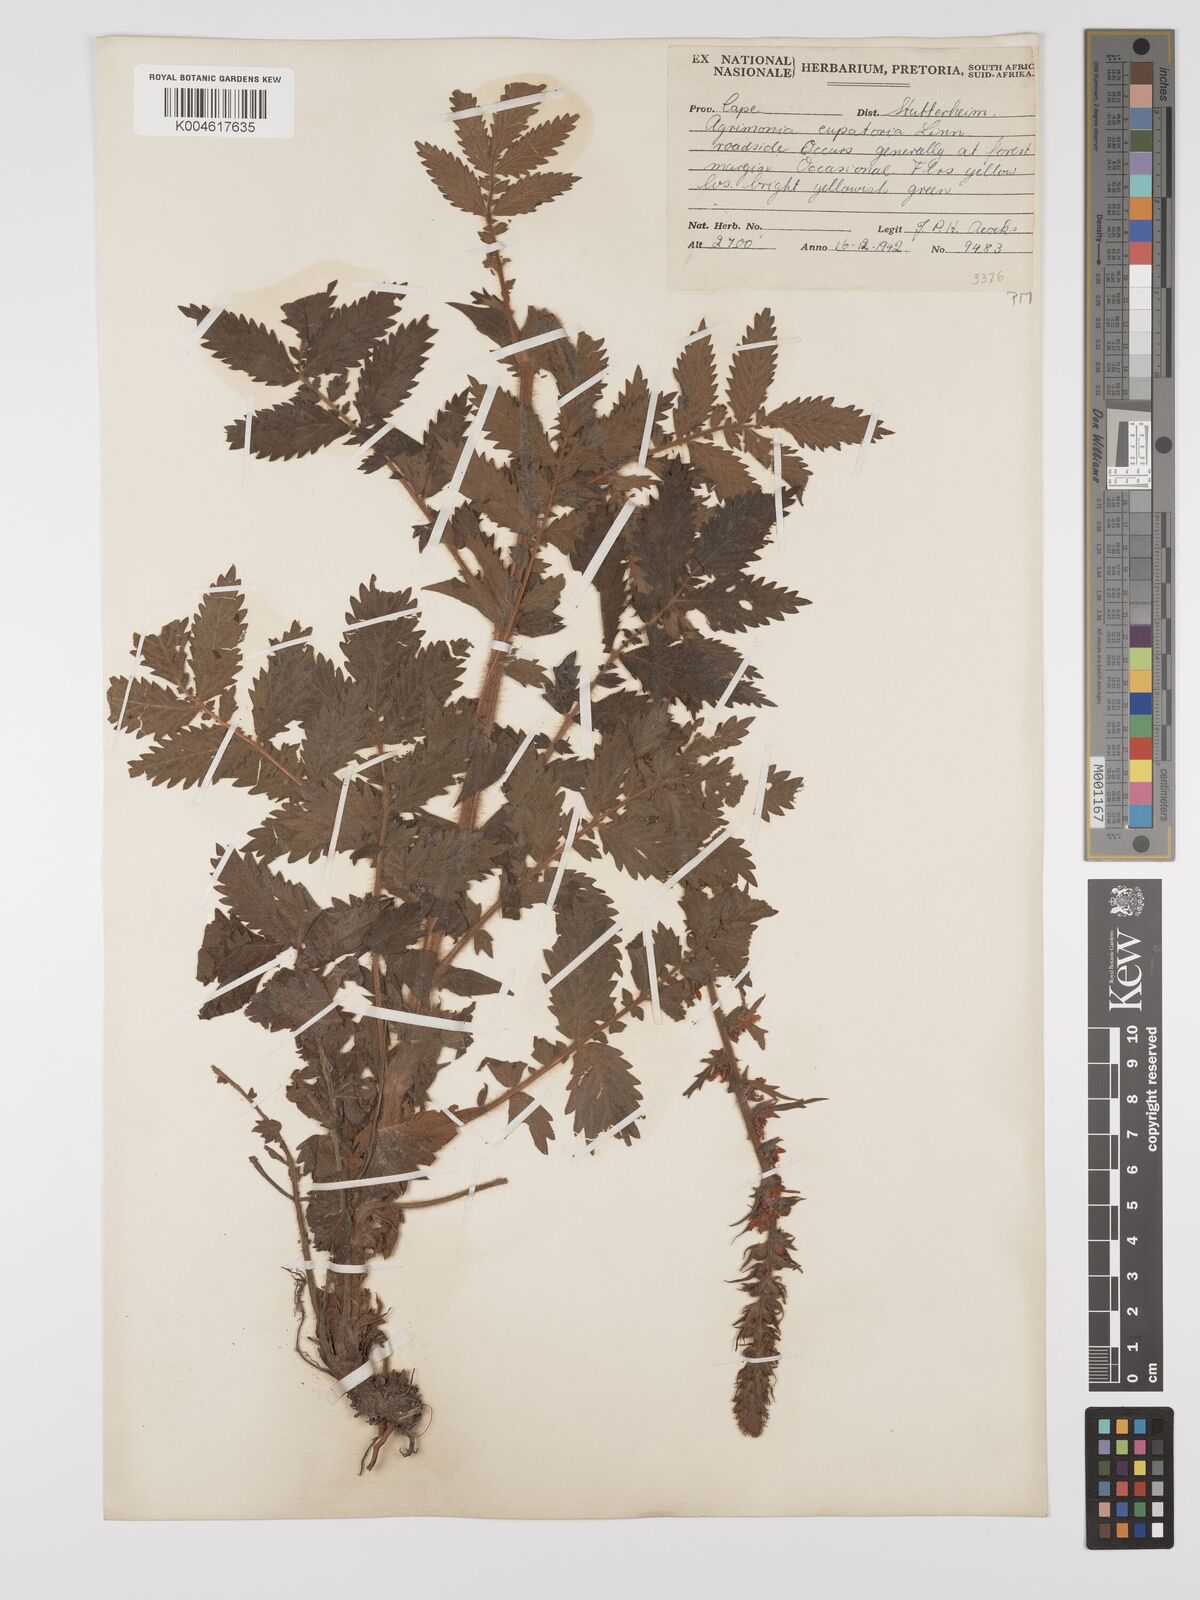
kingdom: Plantae
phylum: Tracheophyta
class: Magnoliopsida
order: Rosales
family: Rosaceae
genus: Agrimonia
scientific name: Agrimonia eupatoria
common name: Agrimony
